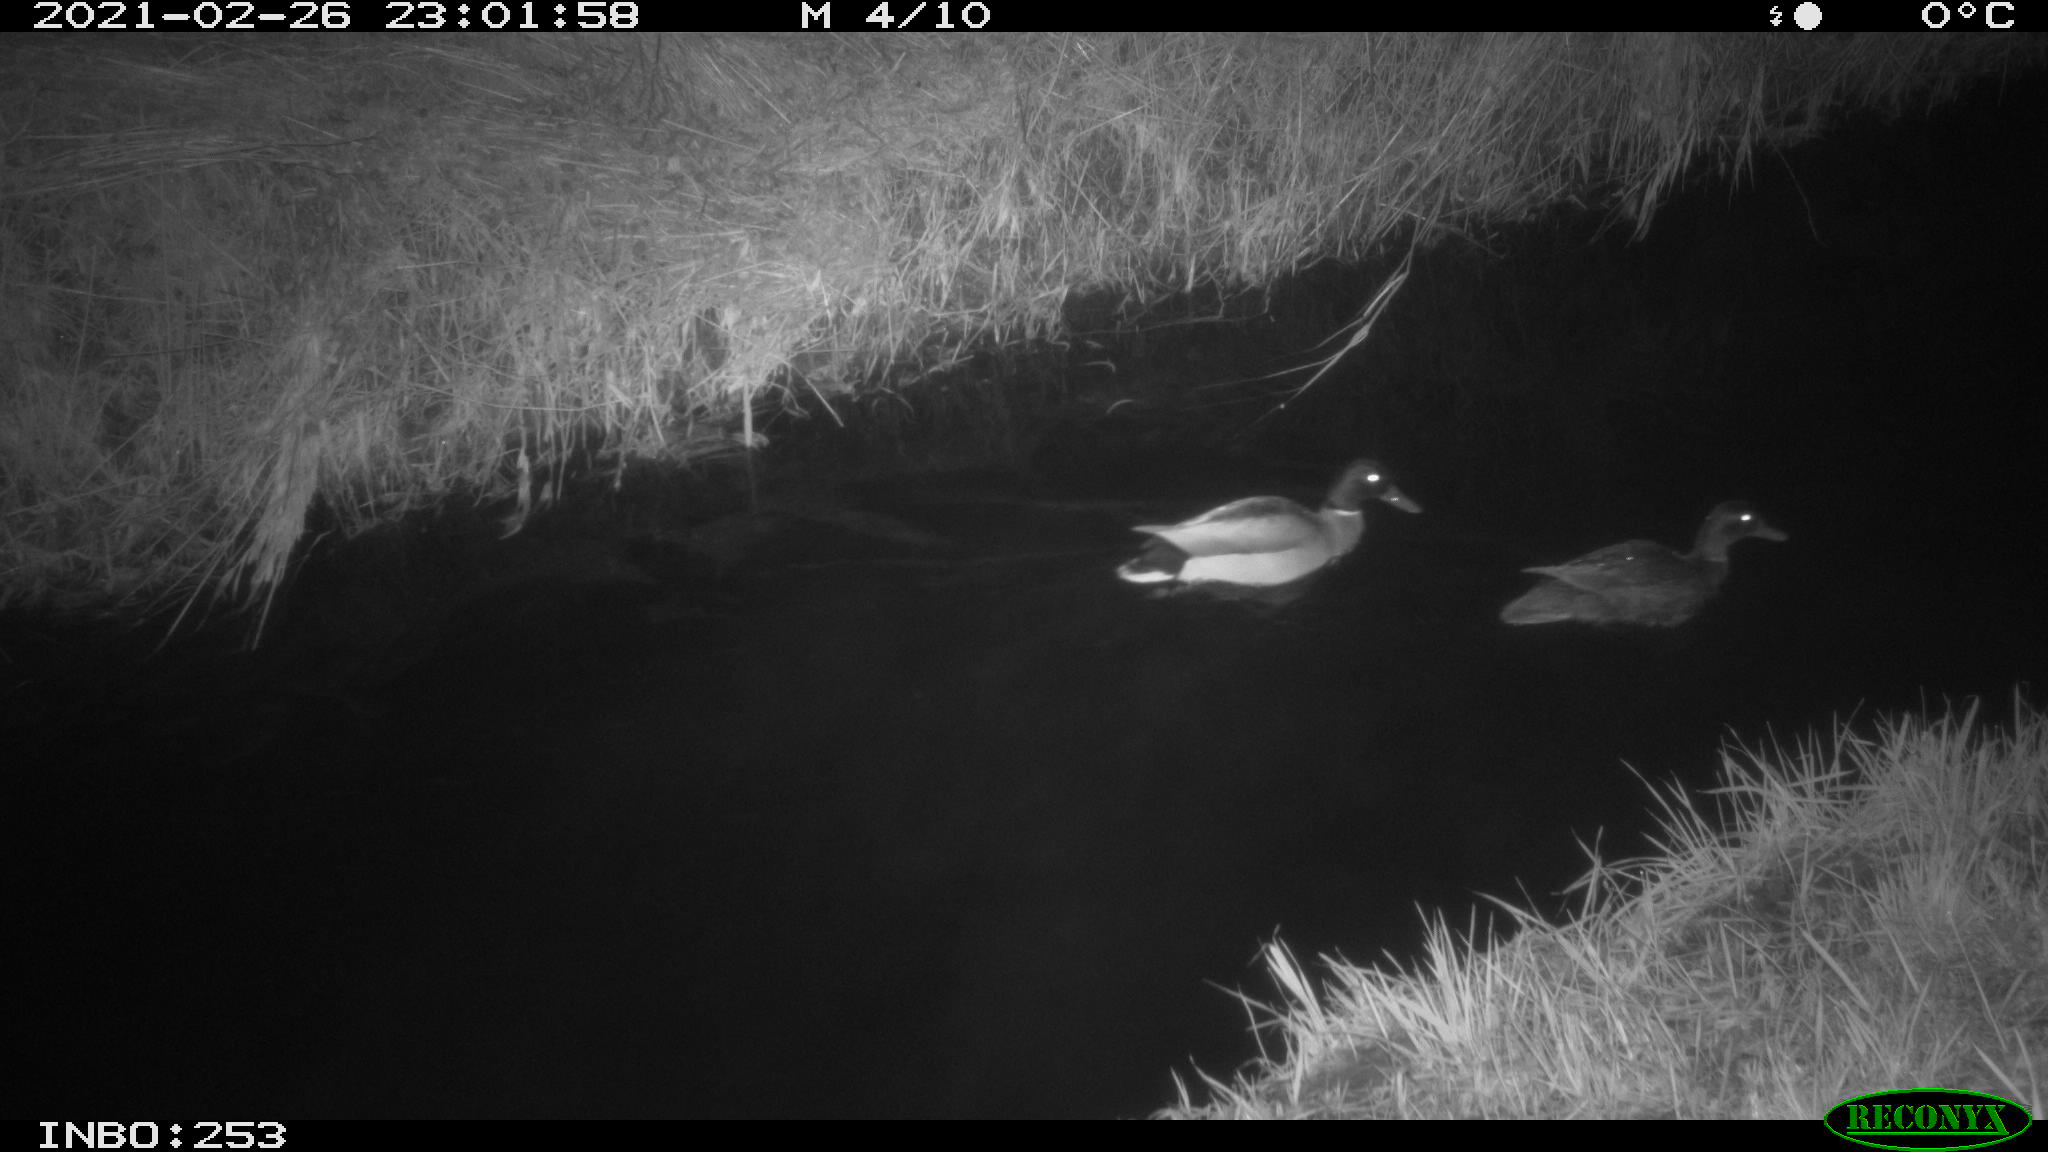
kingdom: Animalia
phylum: Chordata
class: Aves
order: Anseriformes
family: Anatidae
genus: Anas
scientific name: Anas platyrhynchos
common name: Mallard
